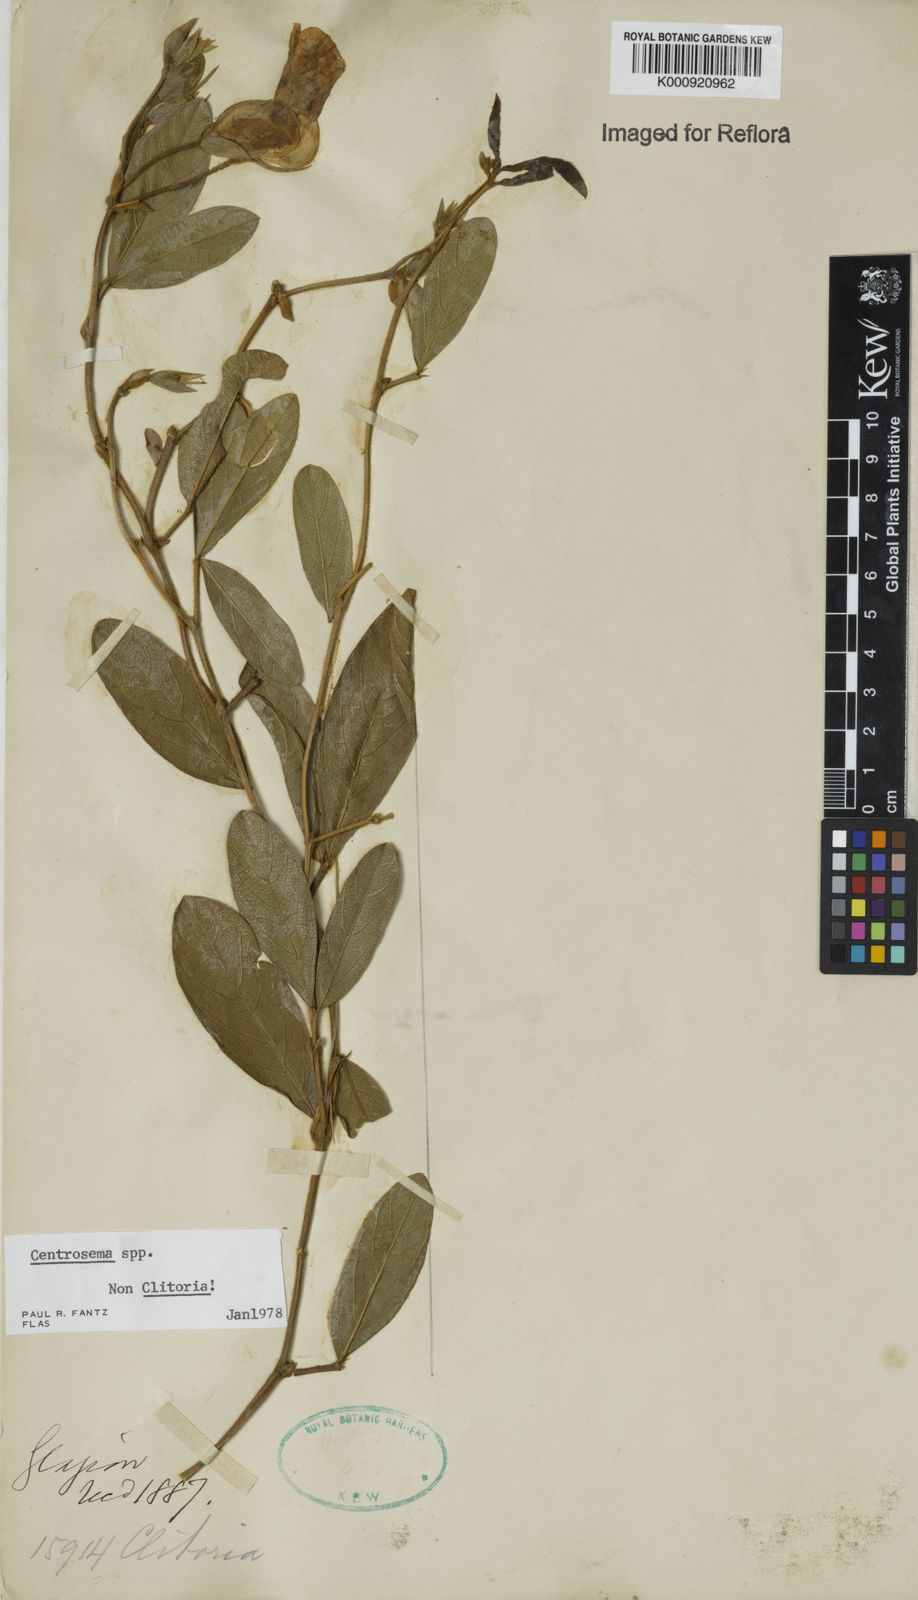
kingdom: Plantae
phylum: Tracheophyta
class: Magnoliopsida
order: Fabales
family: Fabaceae
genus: Centrosema
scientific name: Centrosema
